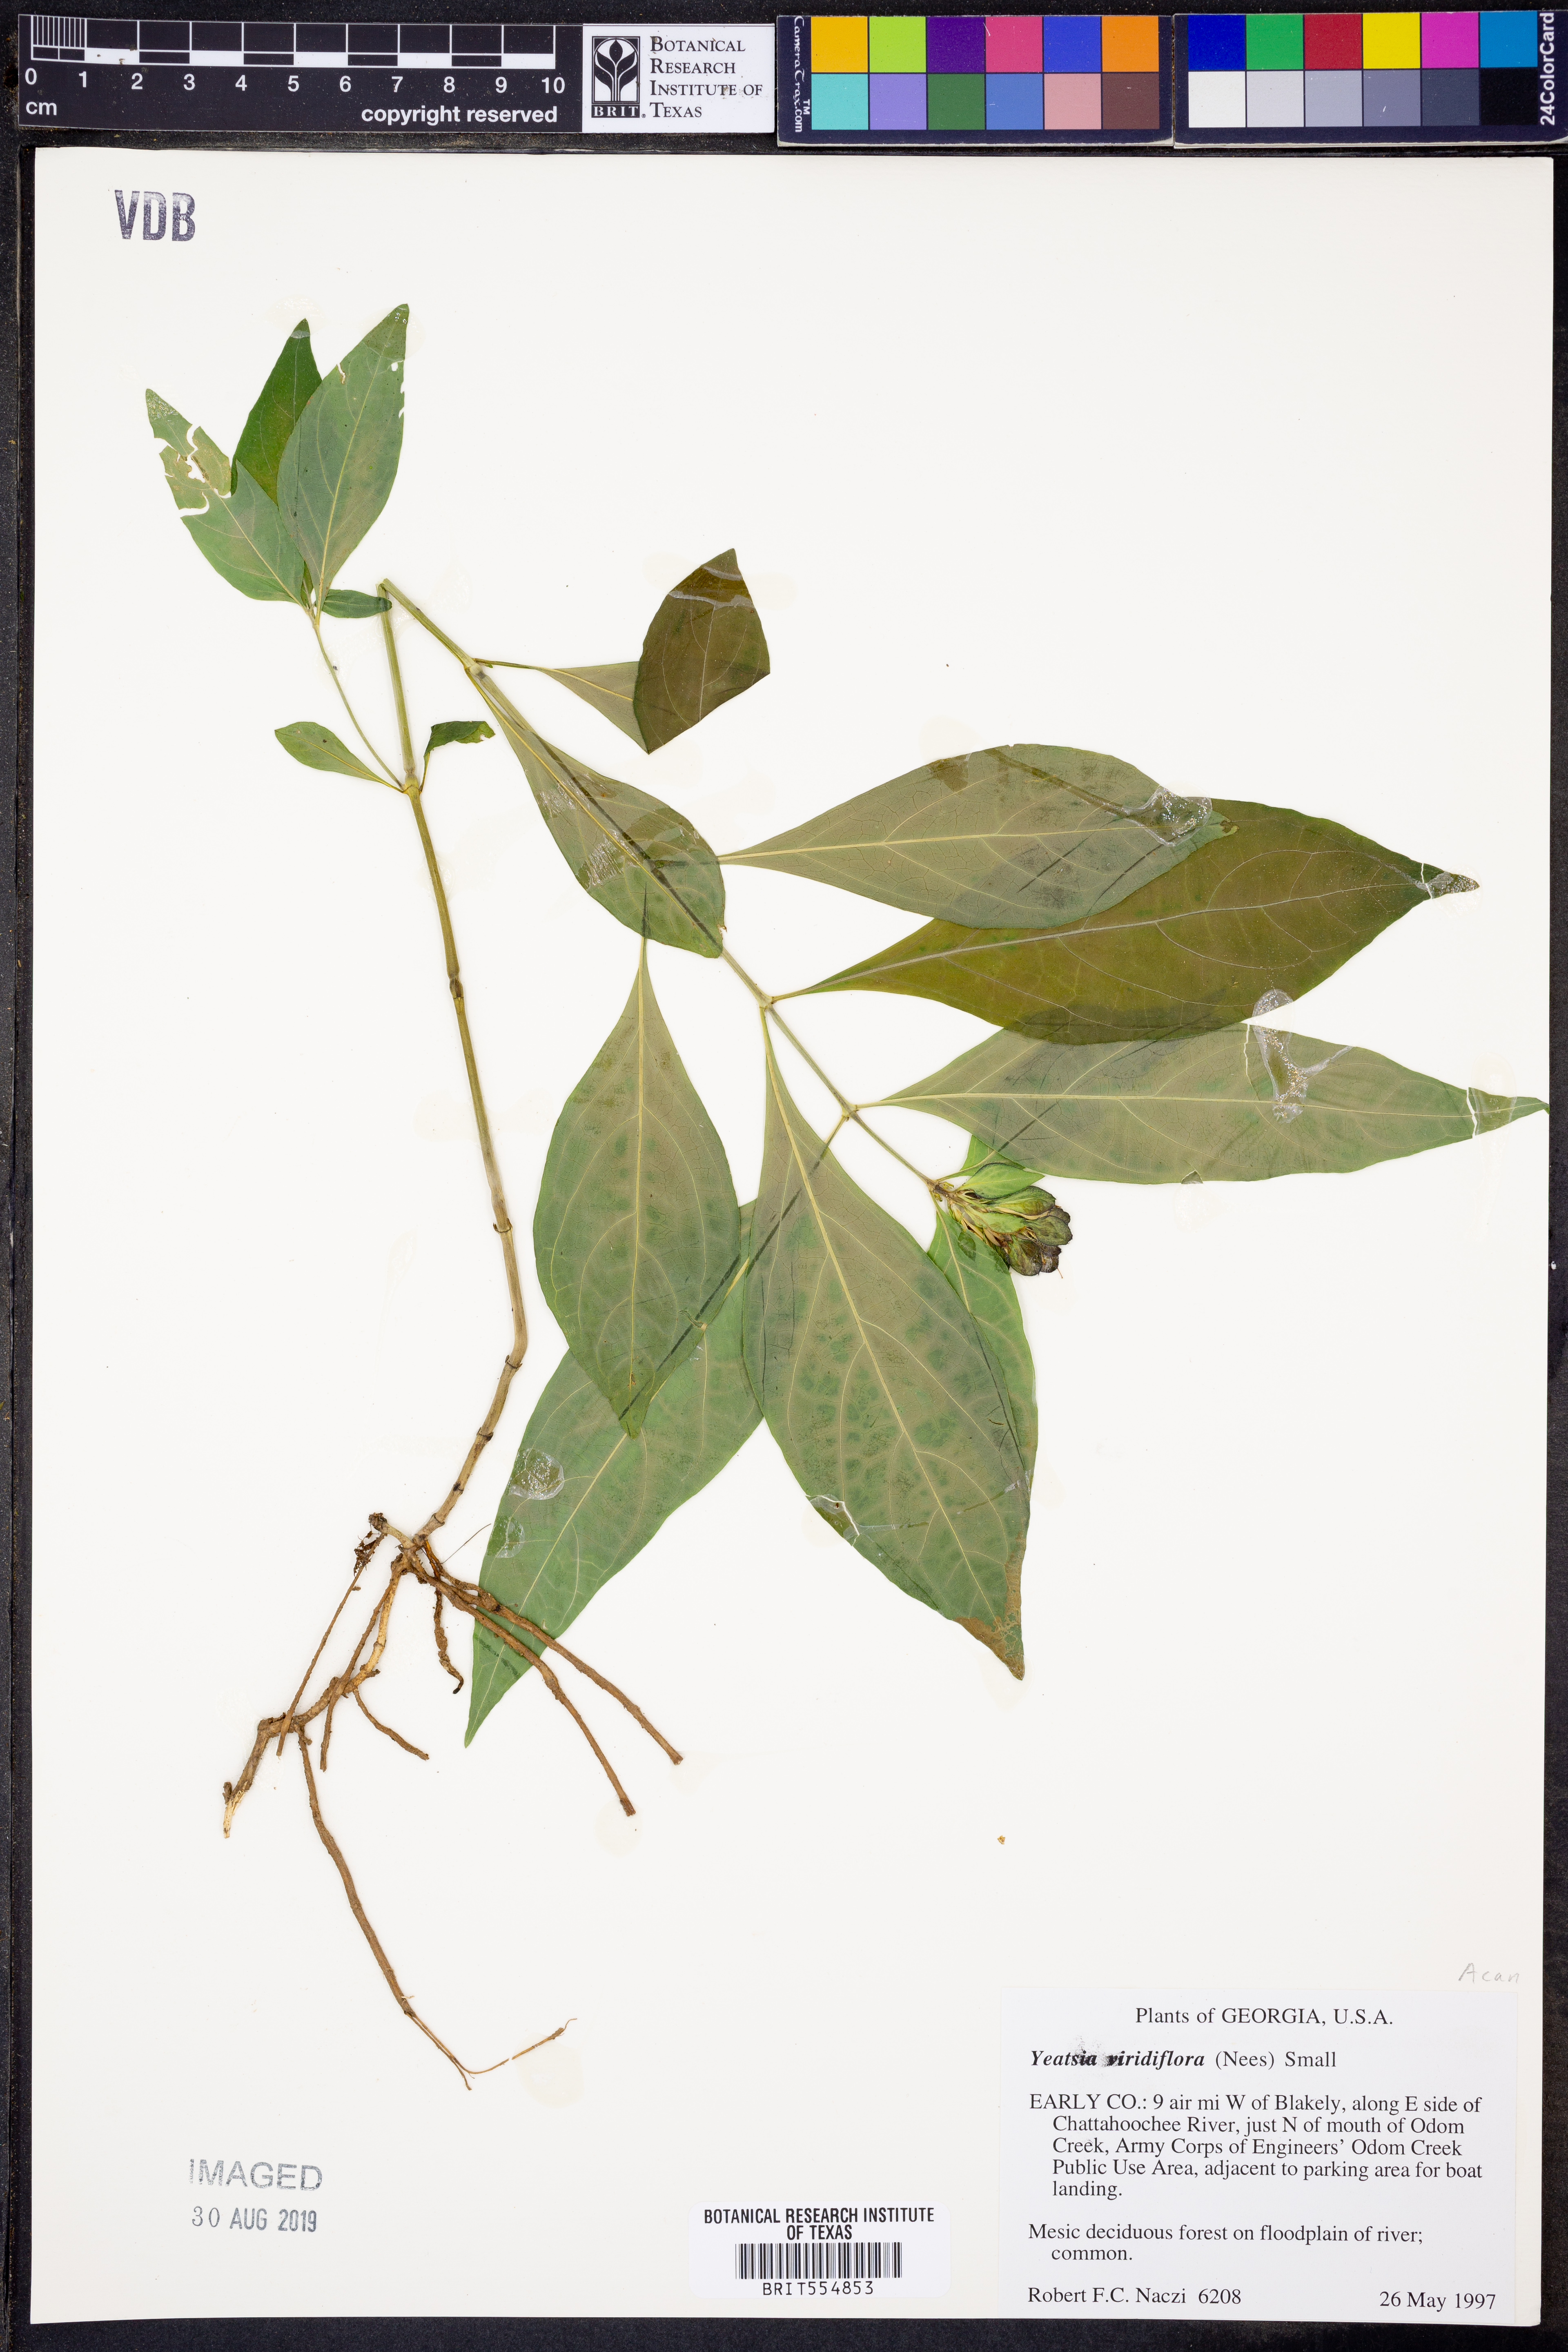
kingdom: Plantae
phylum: Tracheophyta
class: Magnoliopsida
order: Lamiales
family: Acanthaceae
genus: Yeatesia
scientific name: Yeatesia viridiflora
